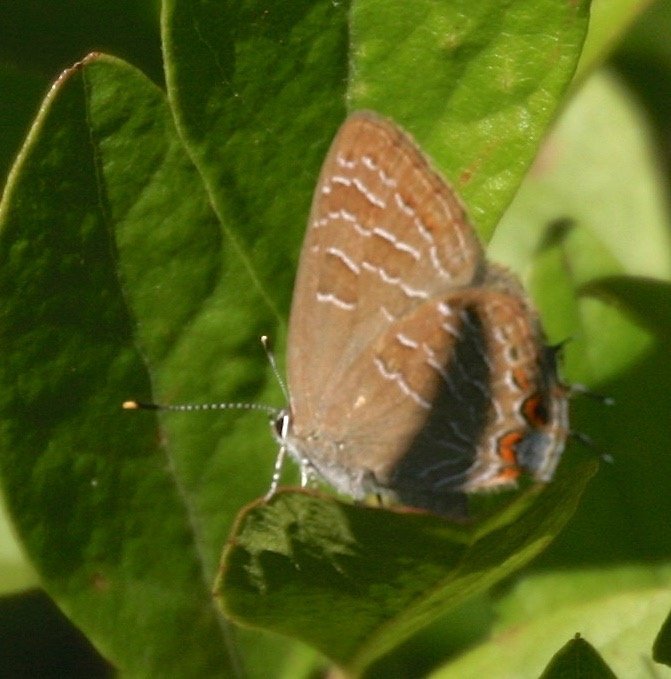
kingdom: Animalia
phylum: Arthropoda
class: Insecta
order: Lepidoptera
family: Lycaenidae
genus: Satyrium
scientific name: Satyrium liparops
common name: Striped Hairstreak
